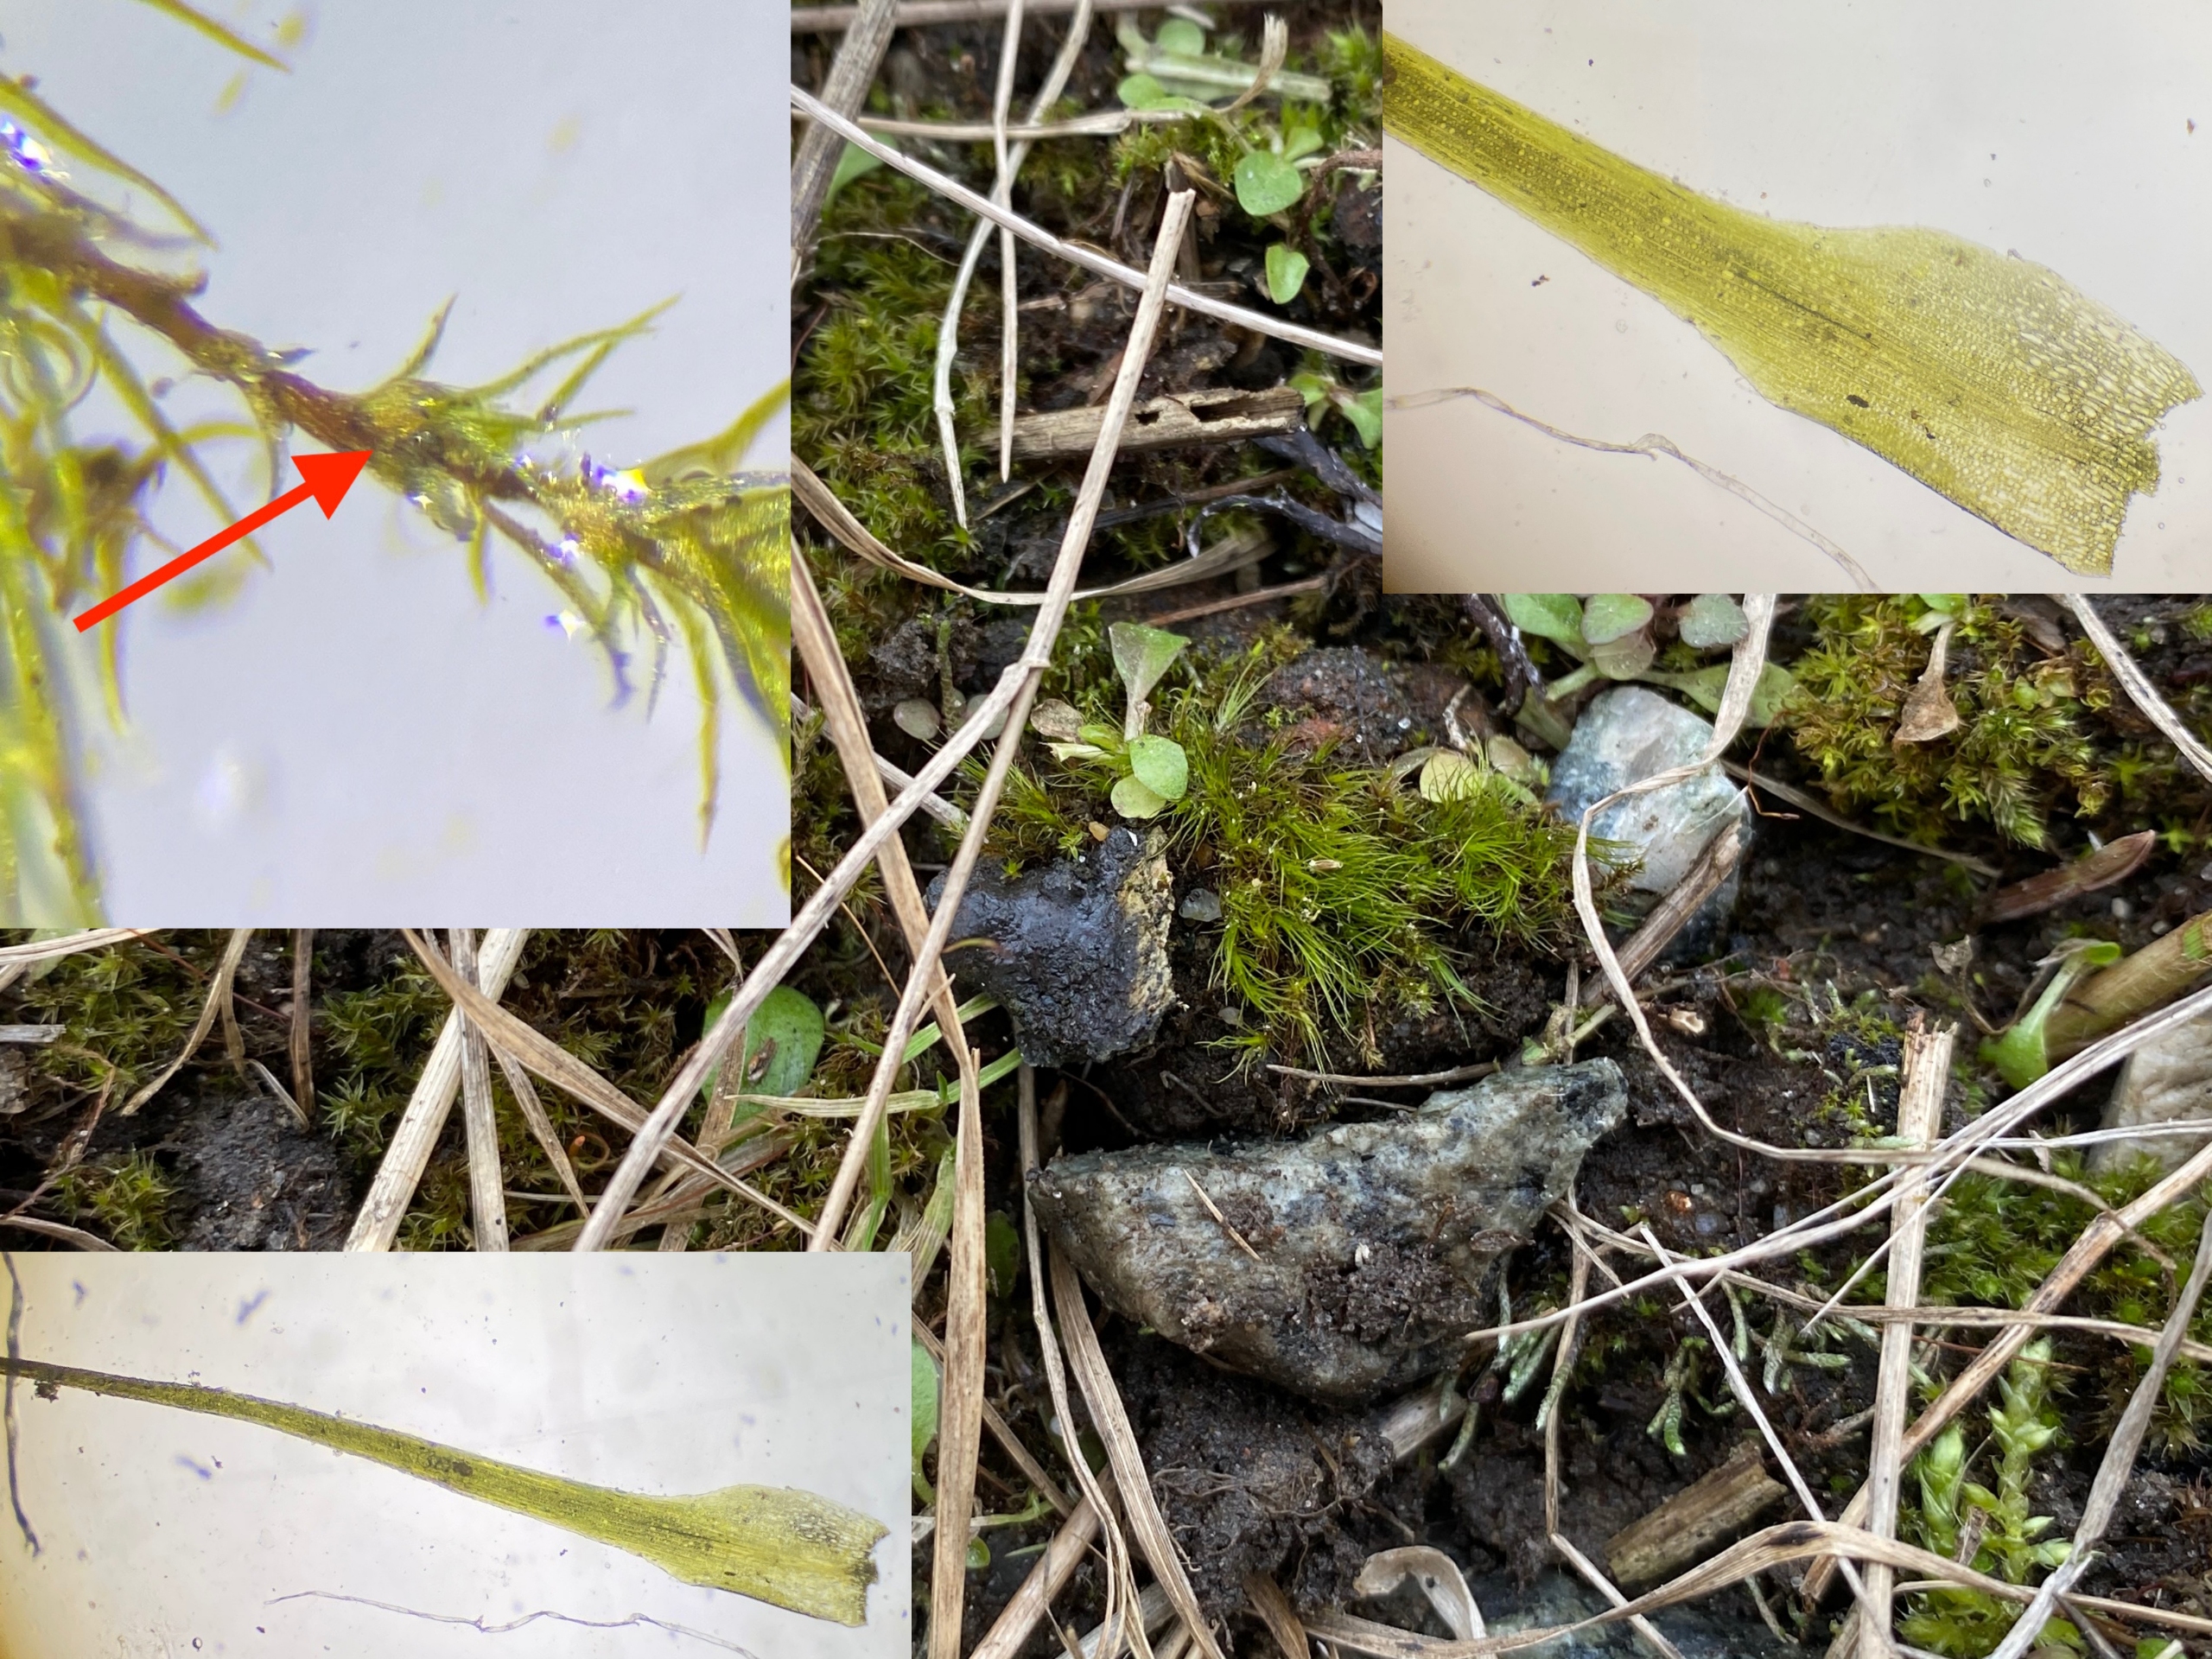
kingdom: Plantae
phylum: Bryophyta
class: Bryopsida
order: Dicranales
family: Ditrichaceae
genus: Pleuridium
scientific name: Pleuridium subulatum
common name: Kortstilket sylbladsmos
